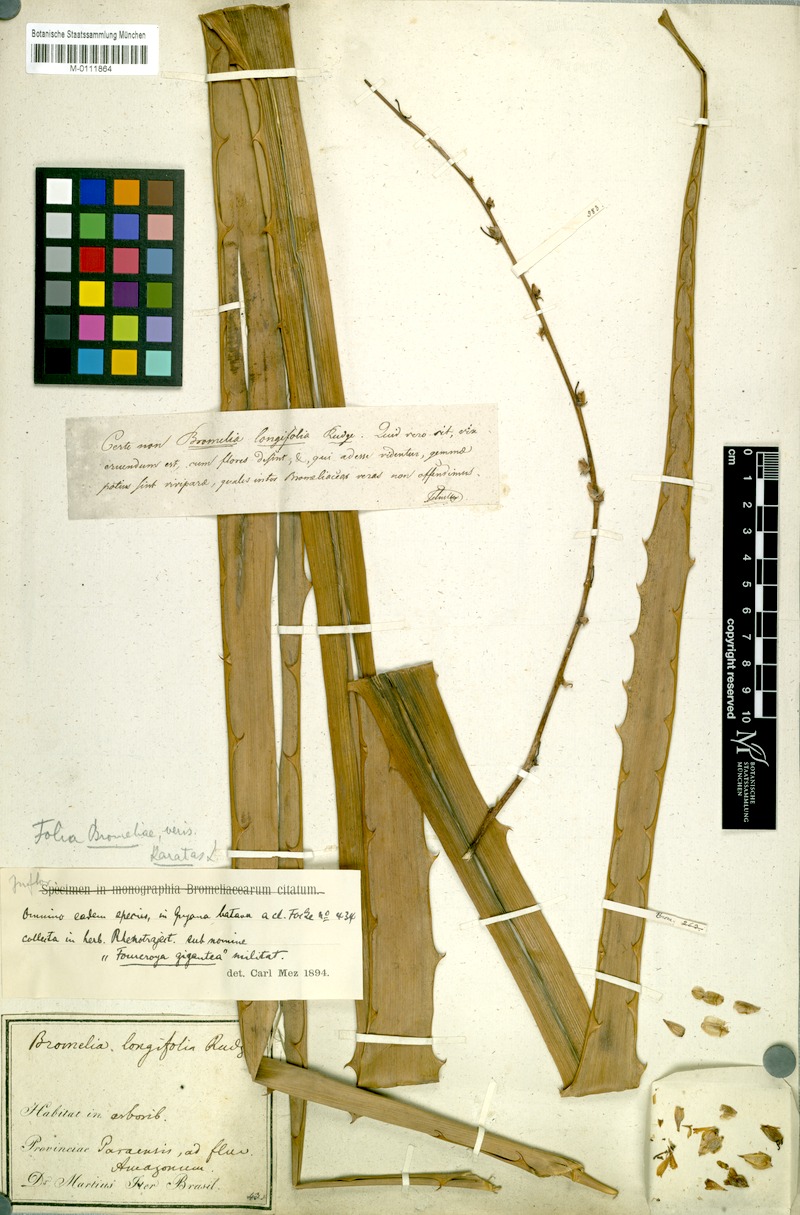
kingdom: Plantae
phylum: Tracheophyta
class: Liliopsida
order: Poales
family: Bromeliaceae
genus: Aechmea
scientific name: Aechmea longifolia
